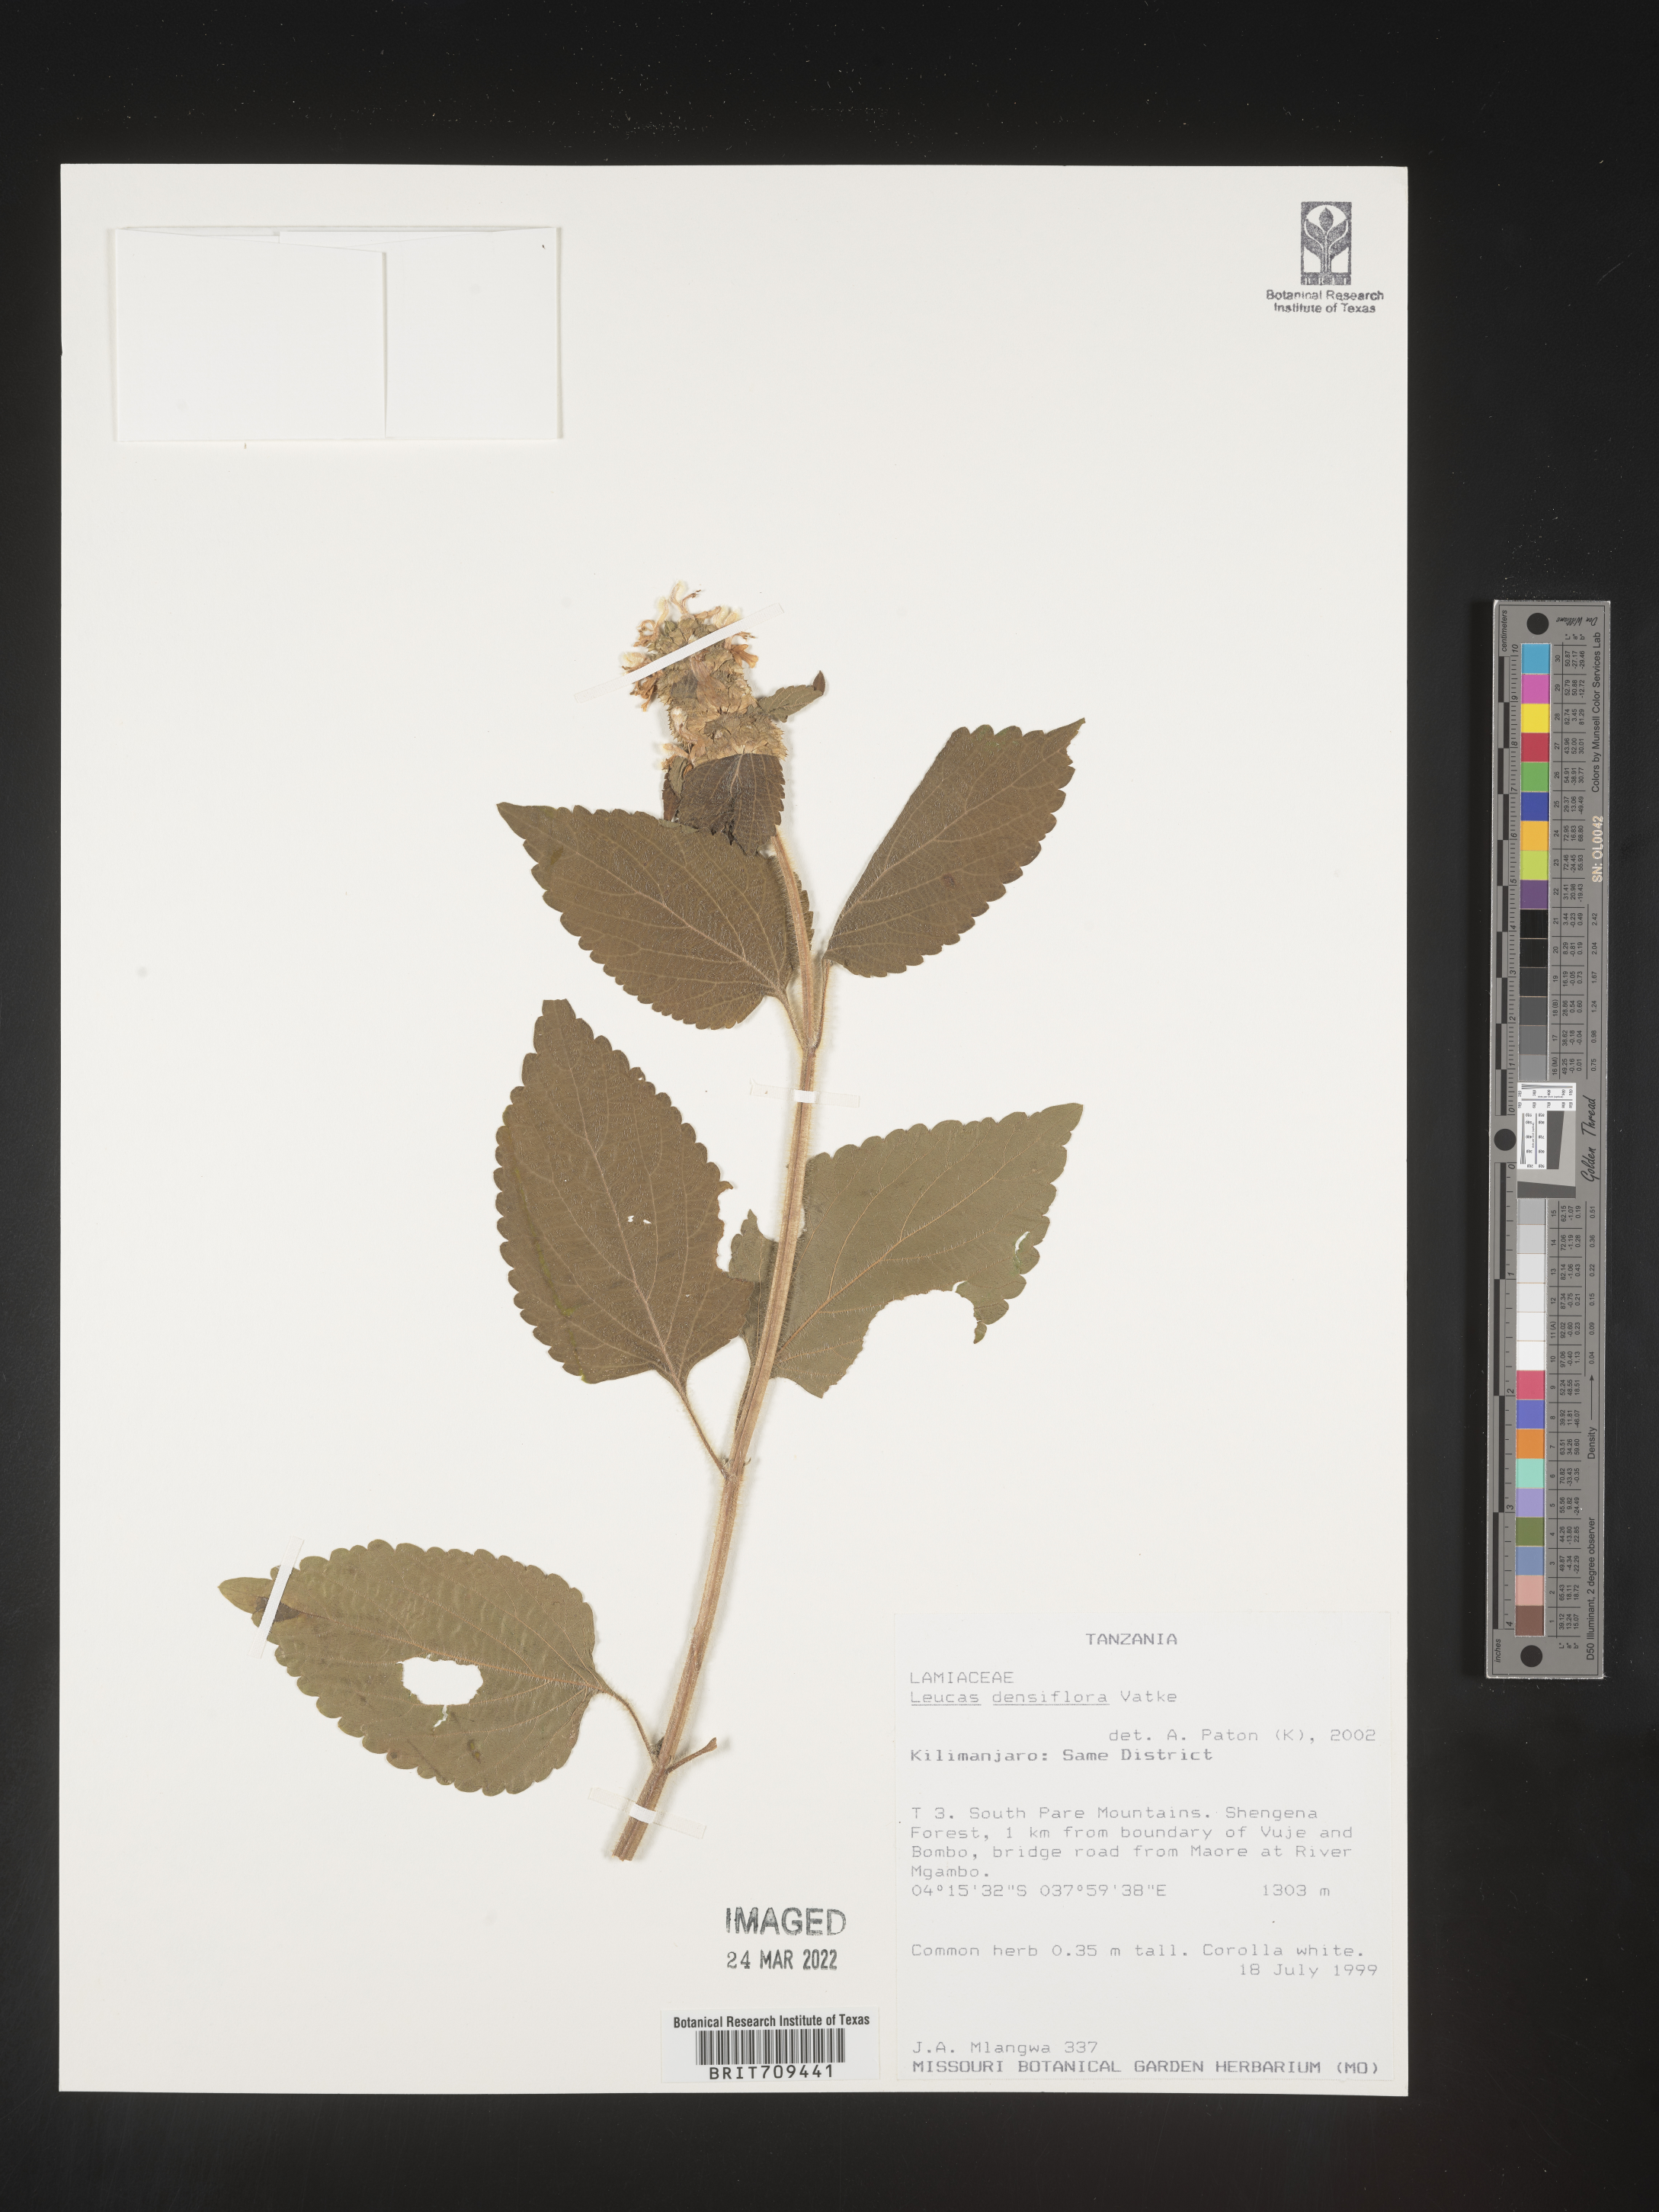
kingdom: Plantae
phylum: Tracheophyta
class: Magnoliopsida
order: Lamiales
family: Lamiaceae
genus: Leucas
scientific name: Leucas
